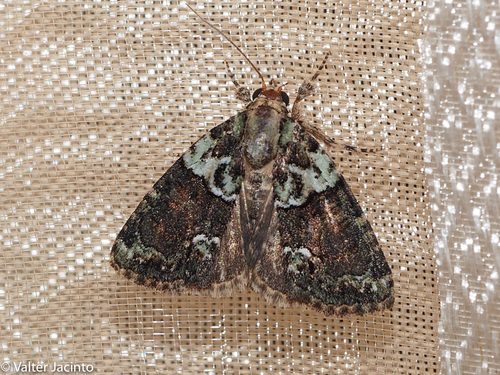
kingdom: Animalia
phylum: Arthropoda
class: Insecta
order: Lepidoptera
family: Noctuidae
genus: Cryphia
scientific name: Cryphia algae
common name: Tree-lichen beauty
